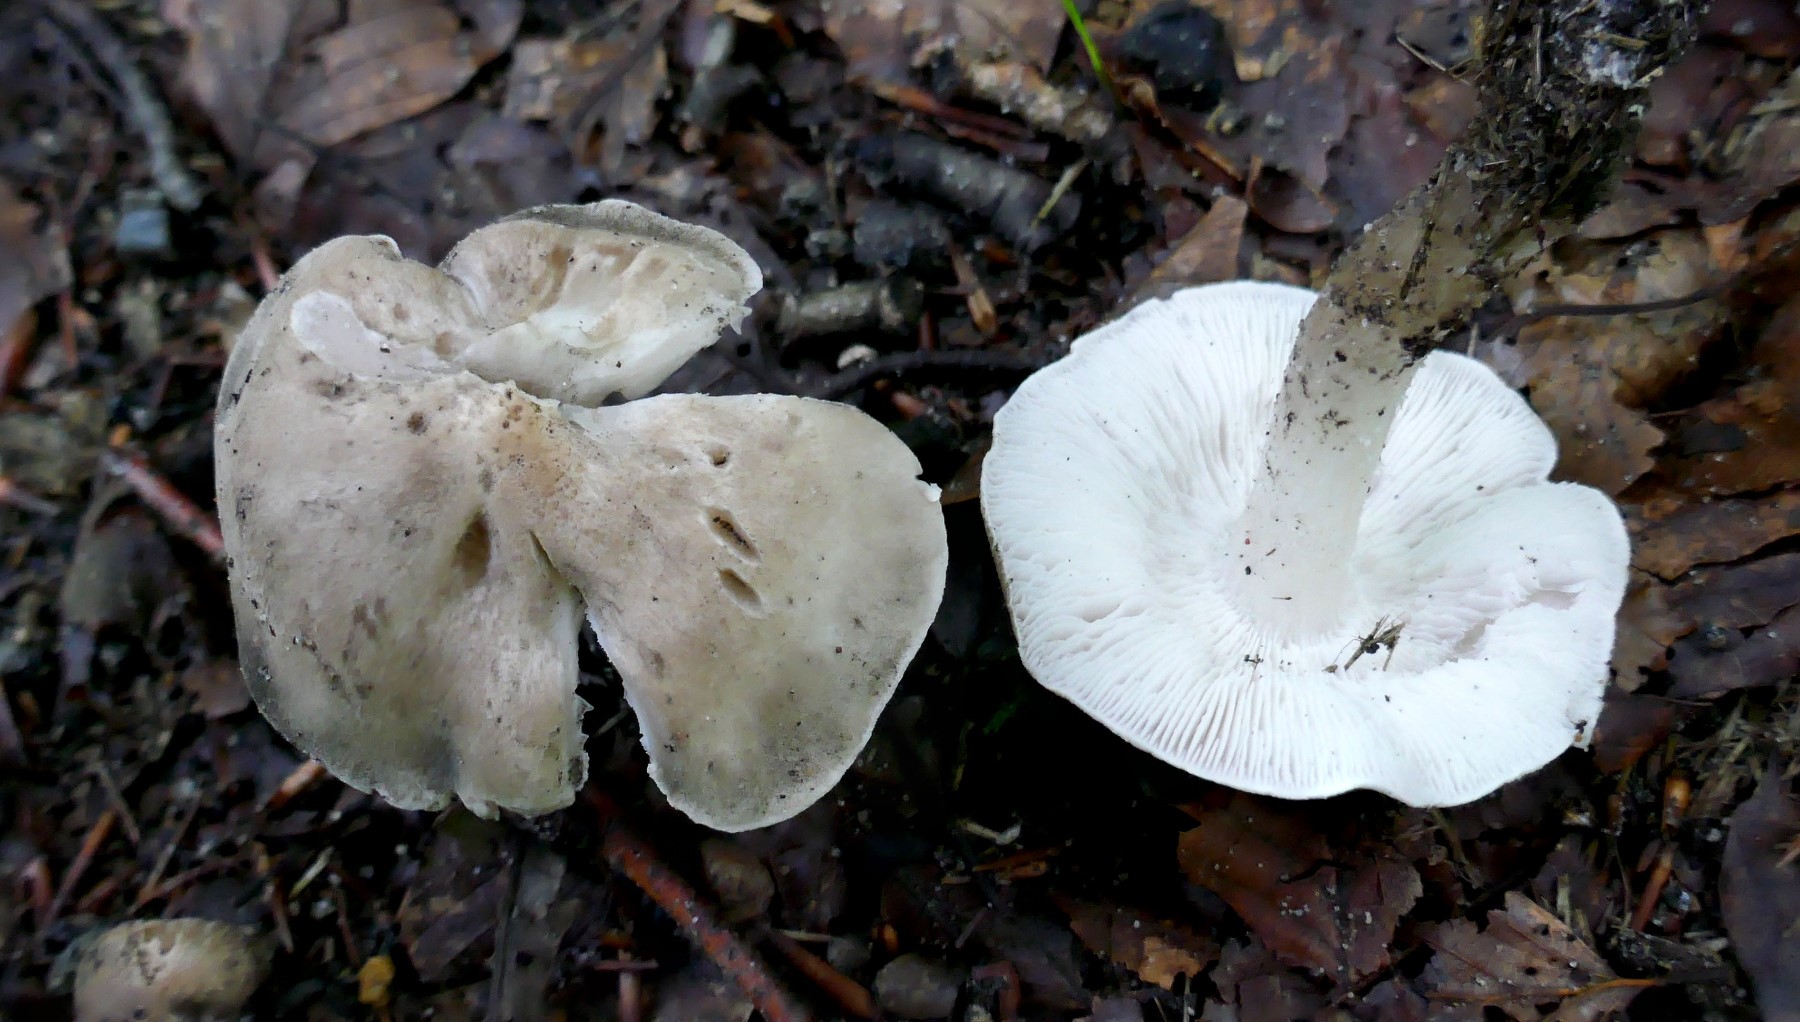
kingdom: Fungi
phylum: Basidiomycota
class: Agaricomycetes
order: Agaricales
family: Tricholomataceae
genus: Tricholoma
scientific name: Tricholoma
